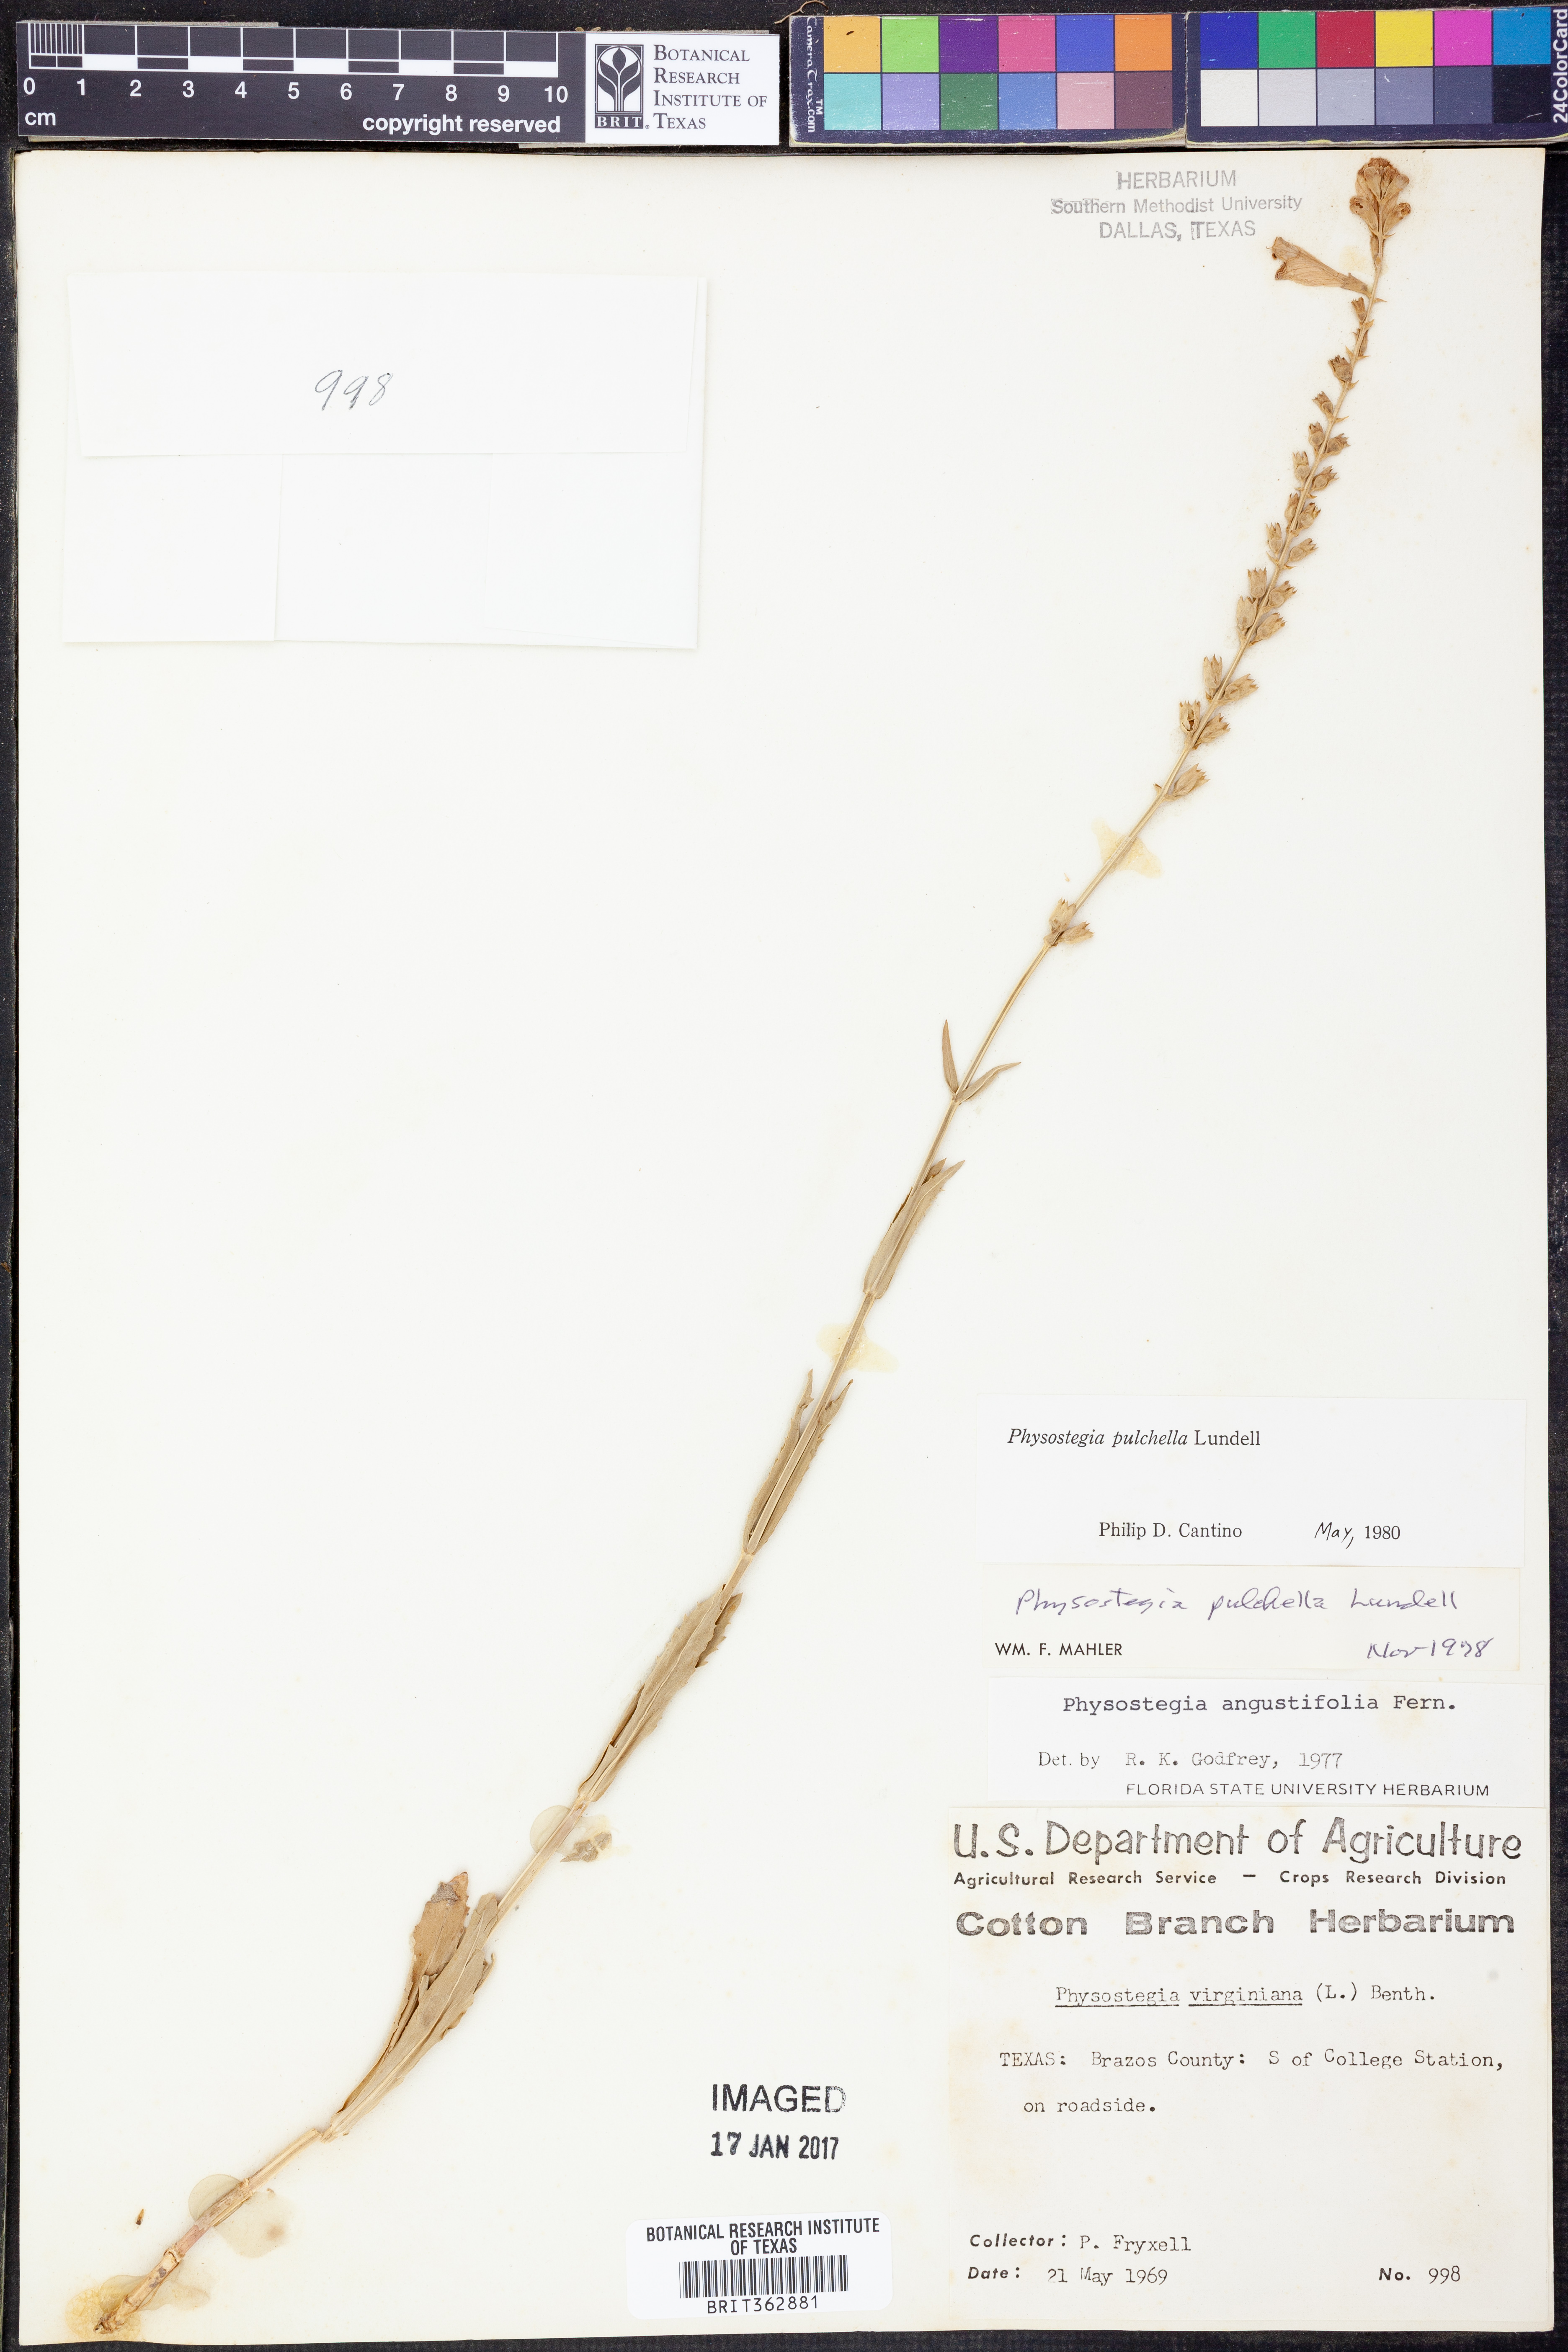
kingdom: Plantae
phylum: Tracheophyta
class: Magnoliopsida
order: Lamiales
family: Lamiaceae
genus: Physostegia
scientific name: Physostegia angustifolia
